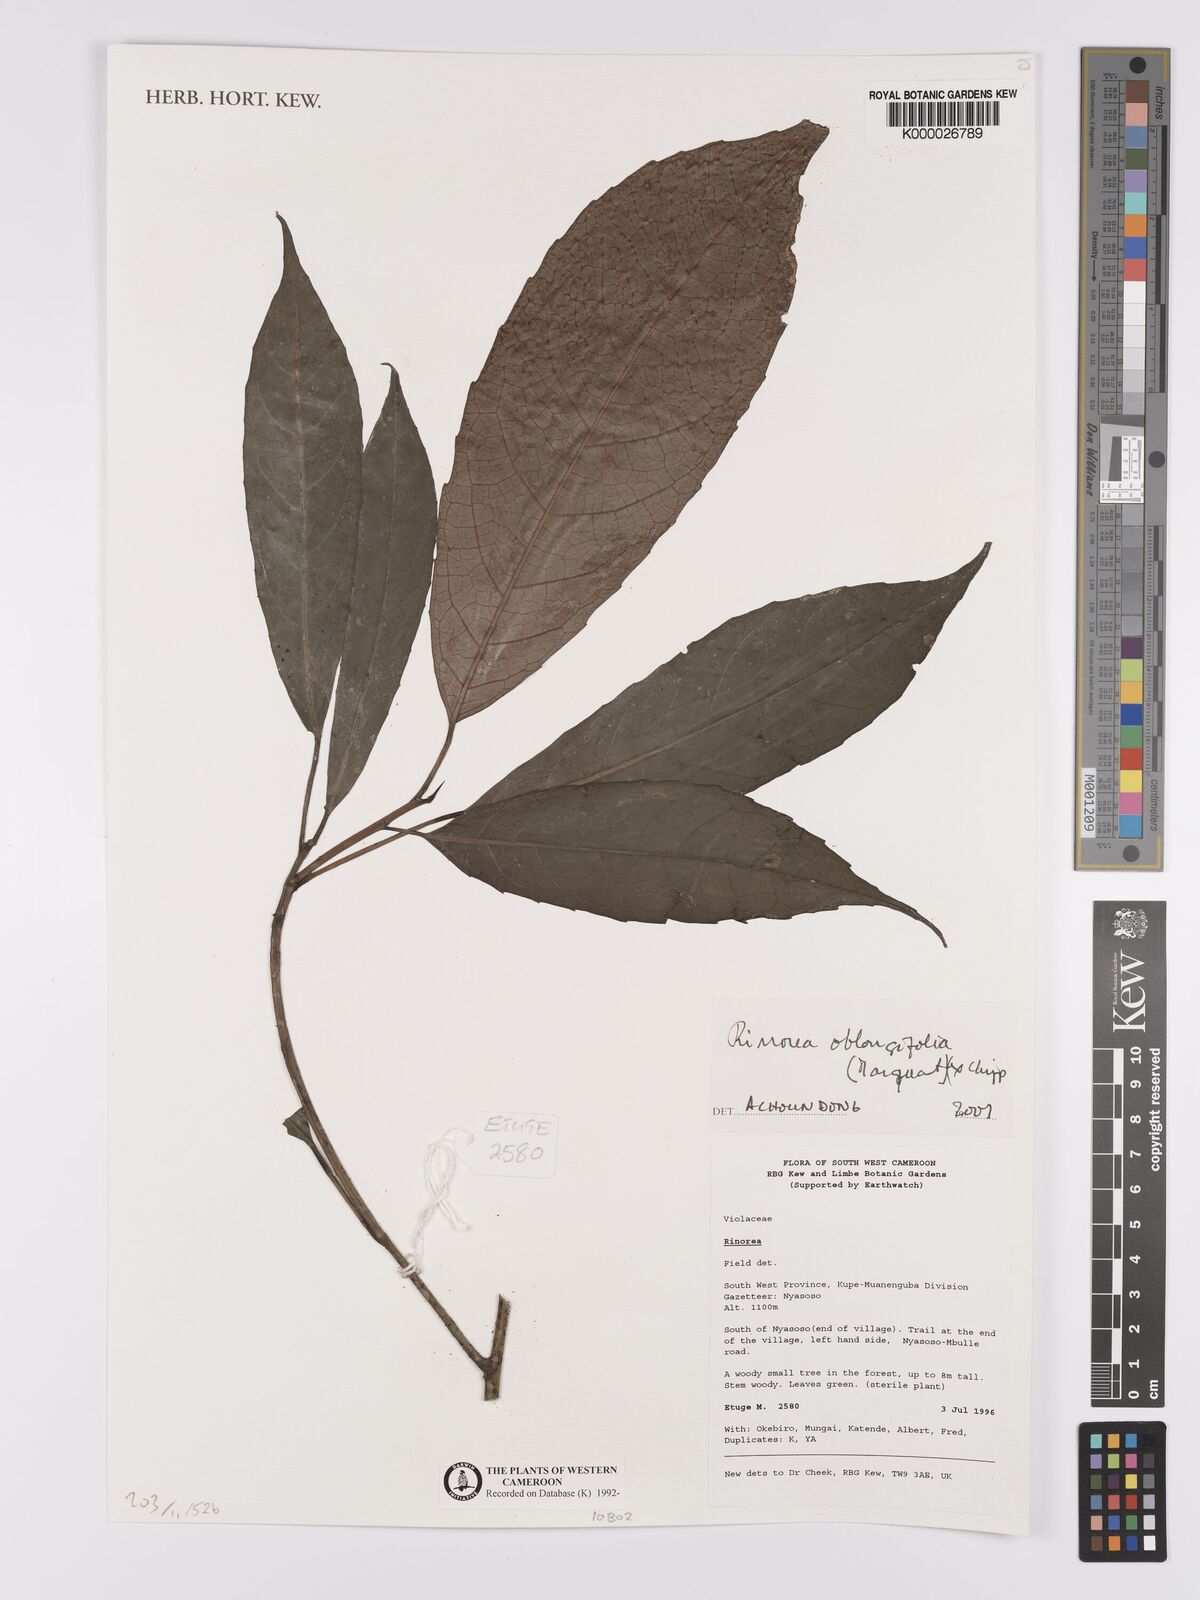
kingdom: Plantae
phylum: Tracheophyta
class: Magnoliopsida
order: Apiales
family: Pittosporaceae
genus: Marianthus
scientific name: Marianthus coeruleopunctatus
